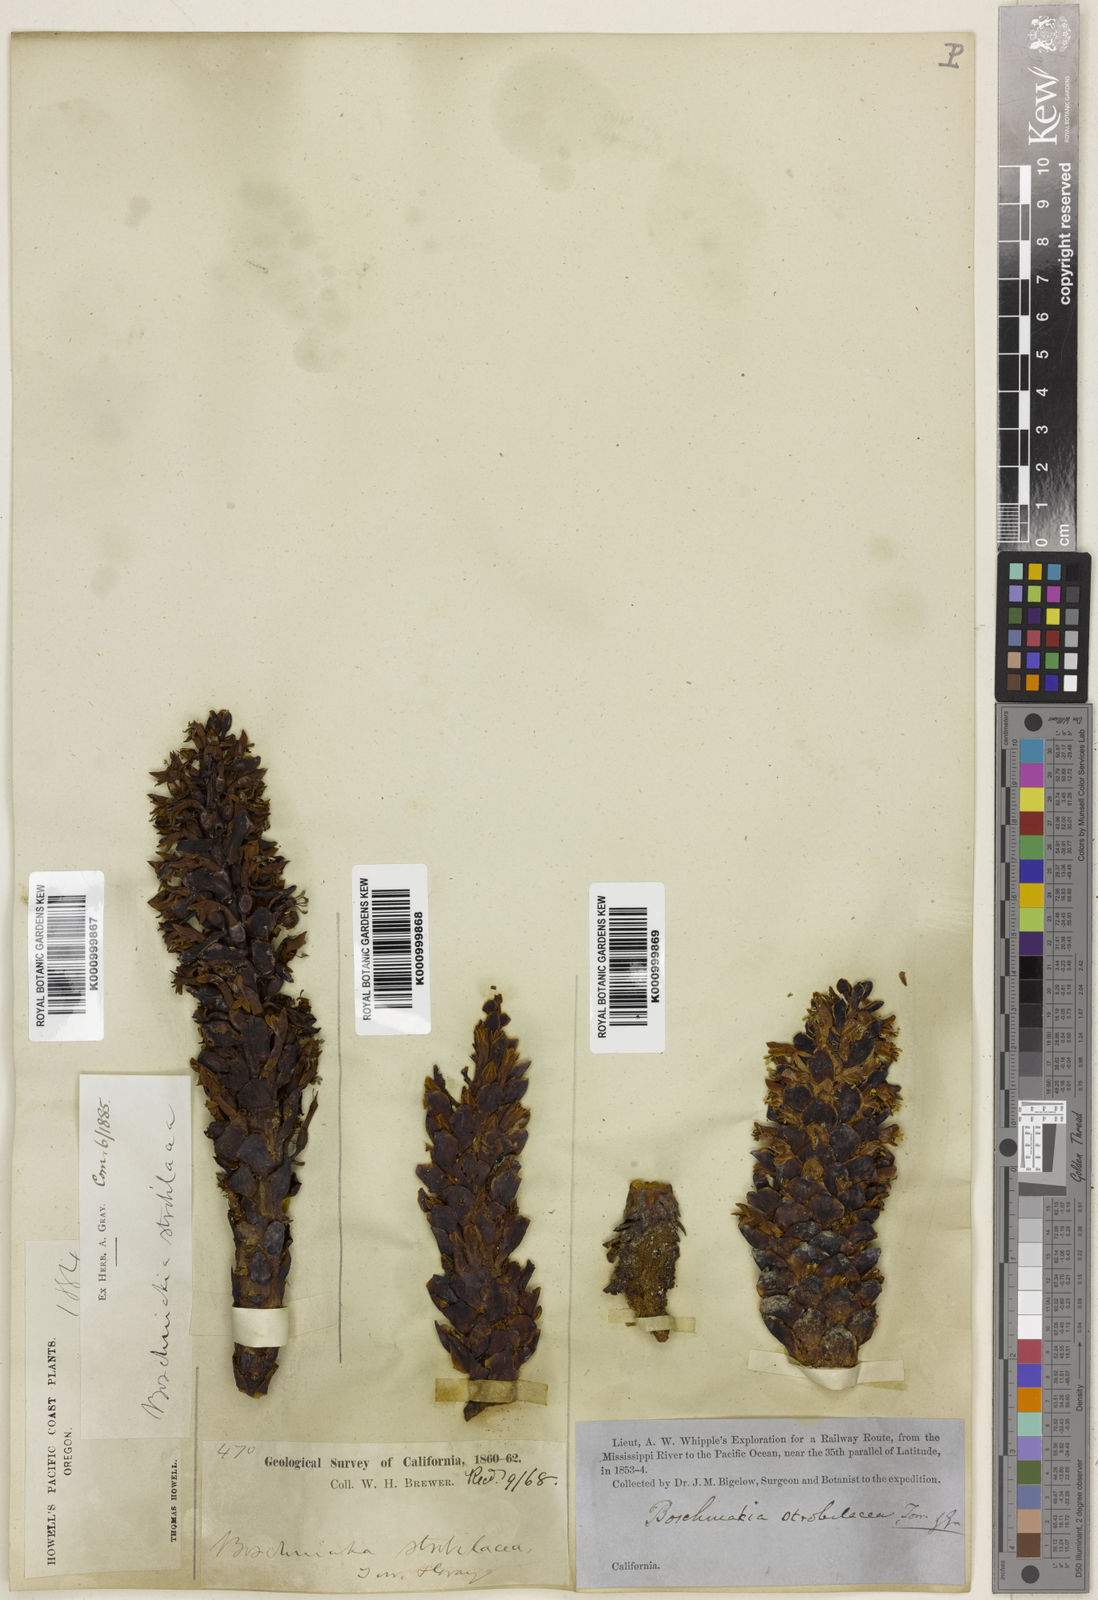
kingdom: Plantae
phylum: Tracheophyta
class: Magnoliopsida
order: Lamiales
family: Orobanchaceae
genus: Kopsiopsis
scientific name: Kopsiopsis strobilacea
